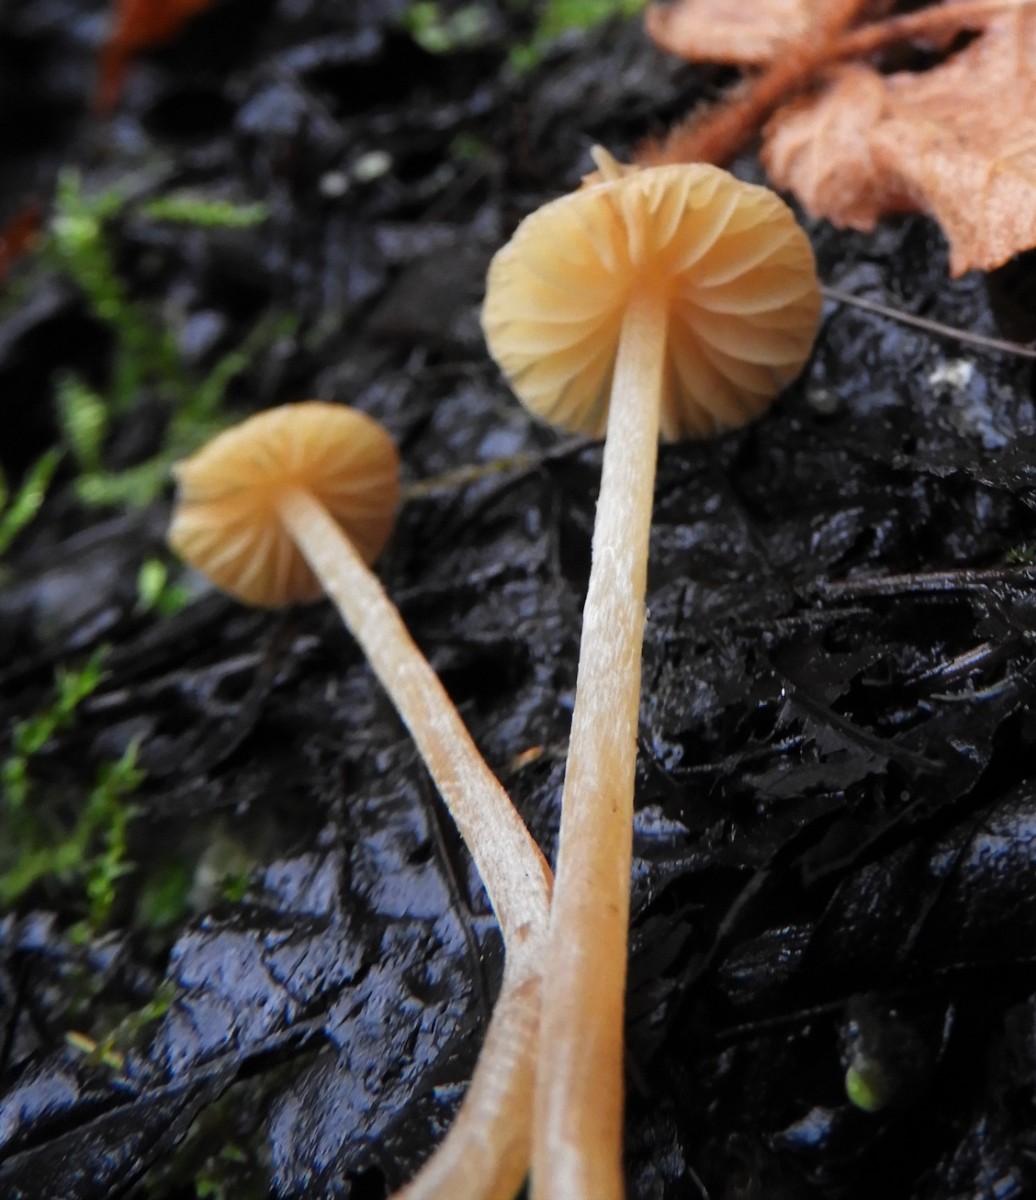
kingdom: Fungi
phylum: Basidiomycota
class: Agaricomycetes
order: Agaricales
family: Hymenogastraceae
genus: Galerina
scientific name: Galerina
